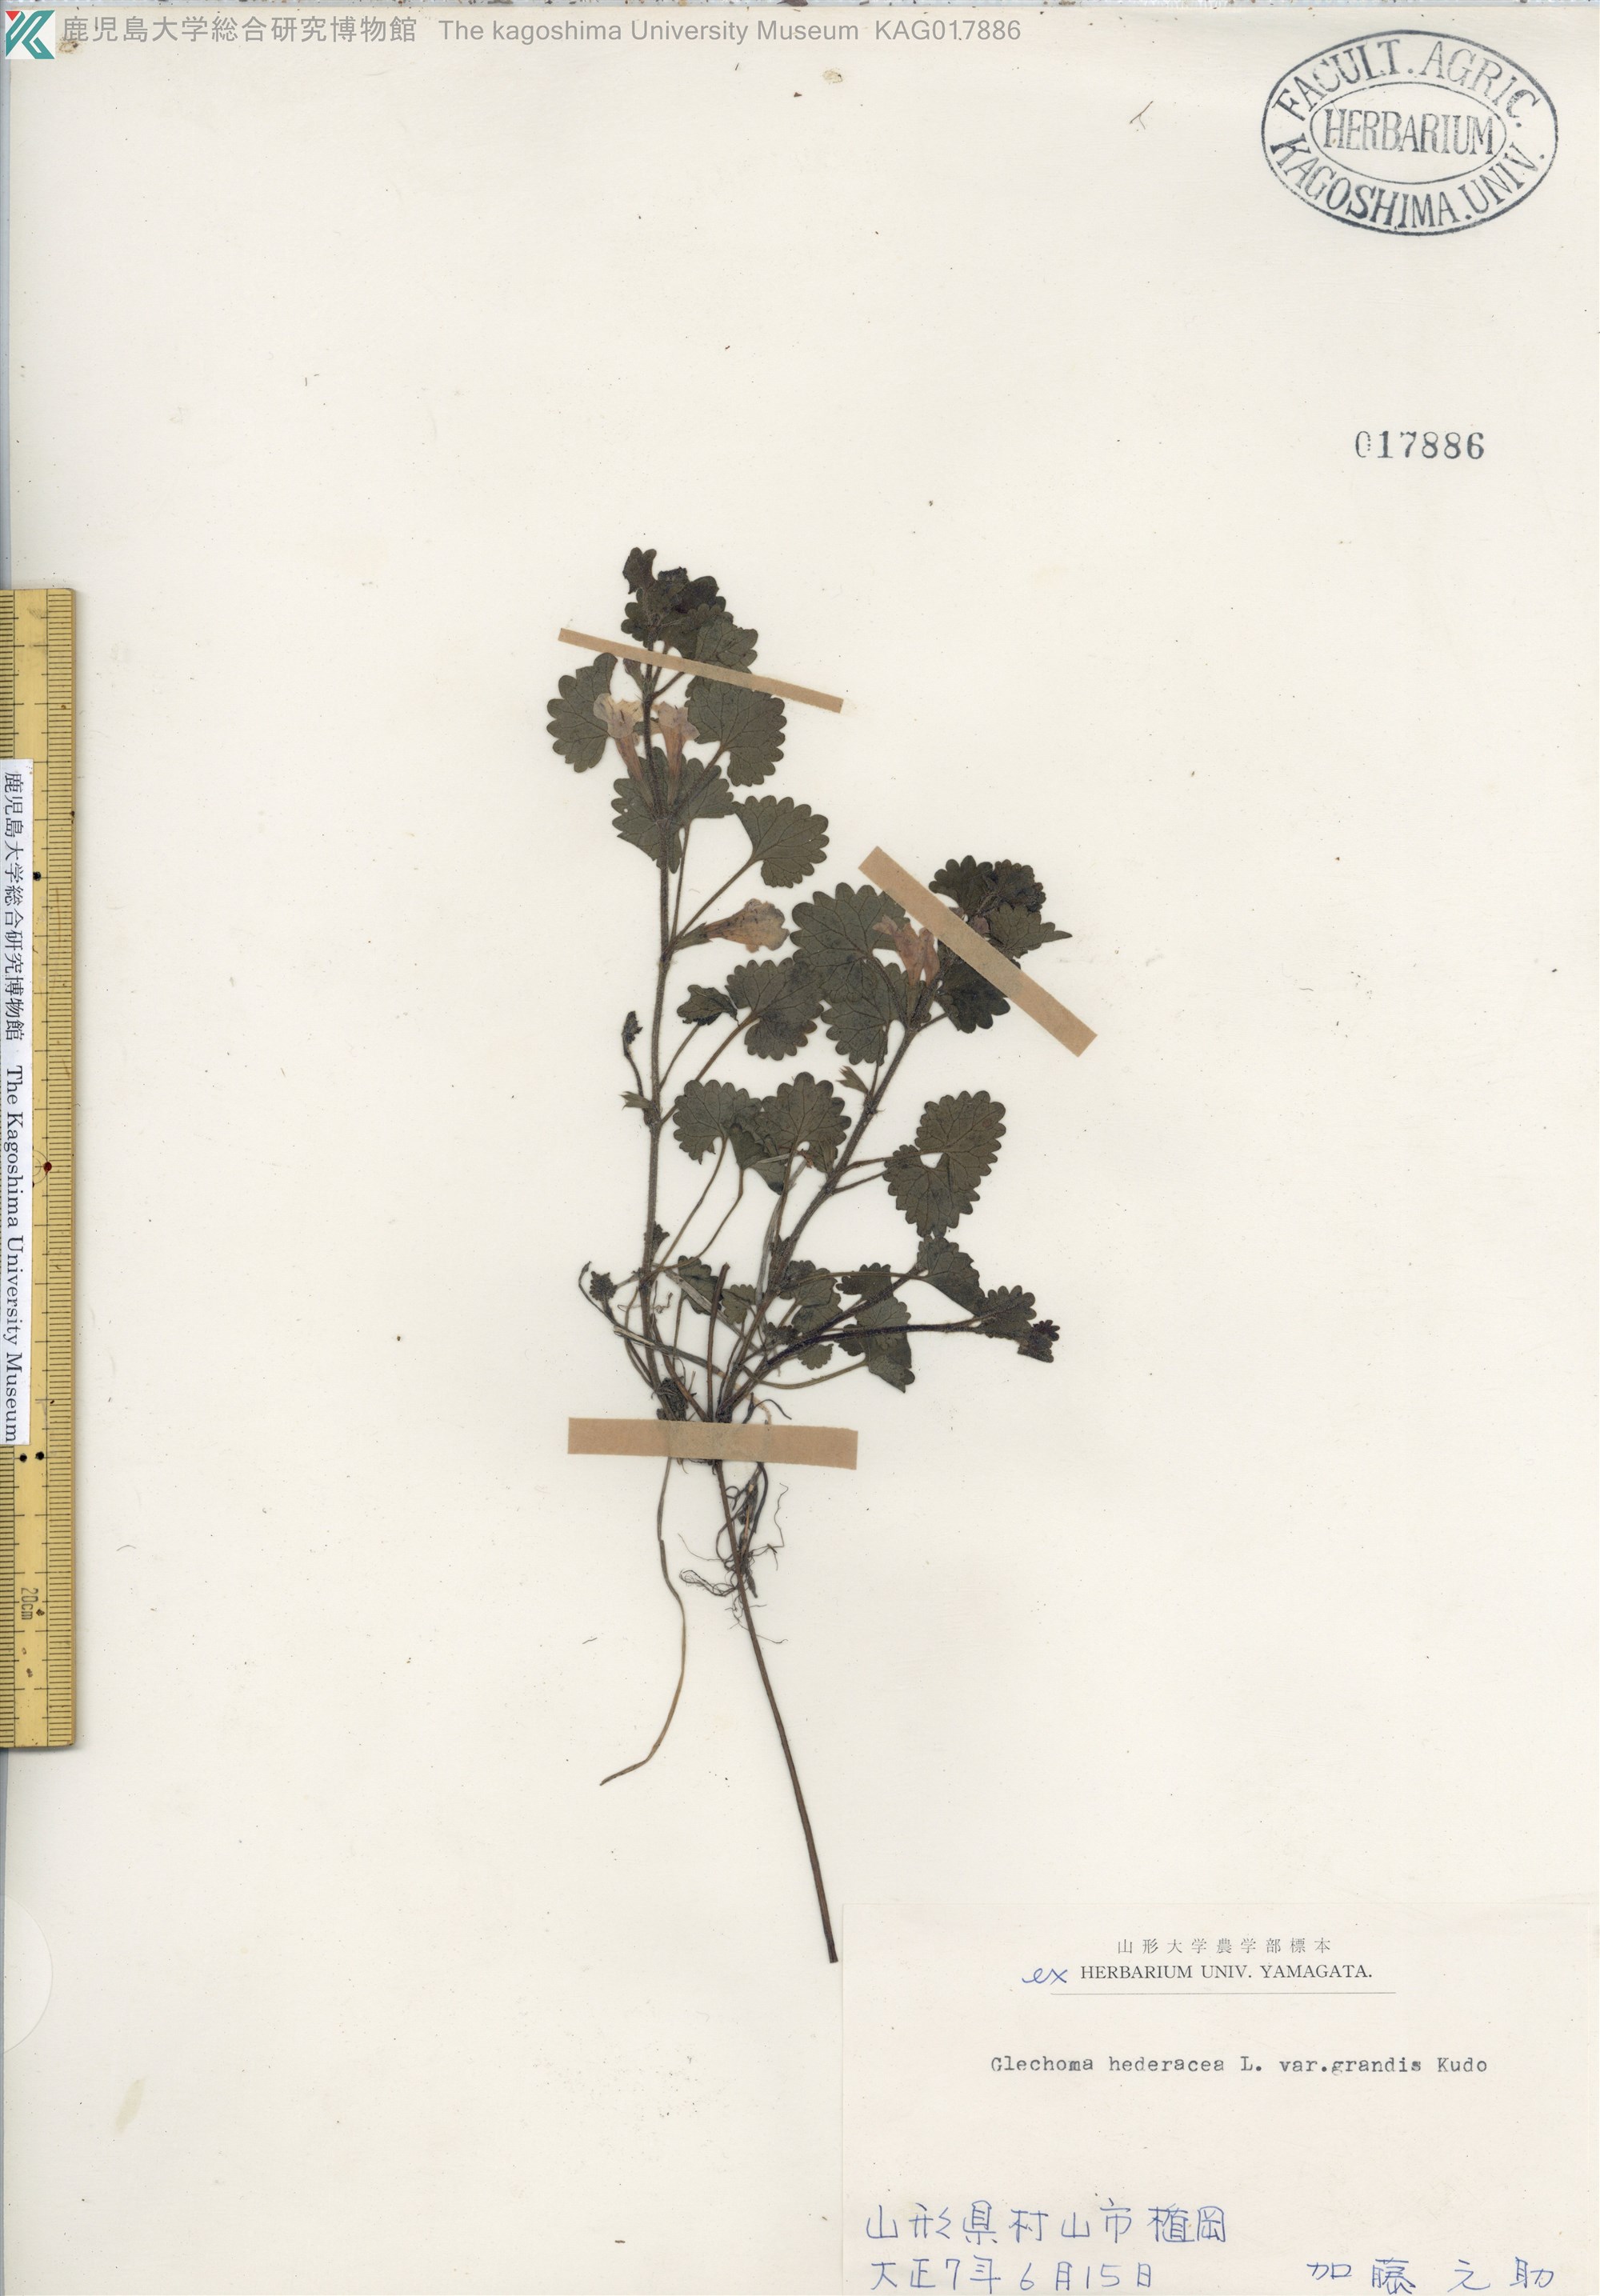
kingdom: Plantae
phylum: Tracheophyta
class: Magnoliopsida
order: Lamiales
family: Lamiaceae
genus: Glechoma
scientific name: Glechoma grandis
